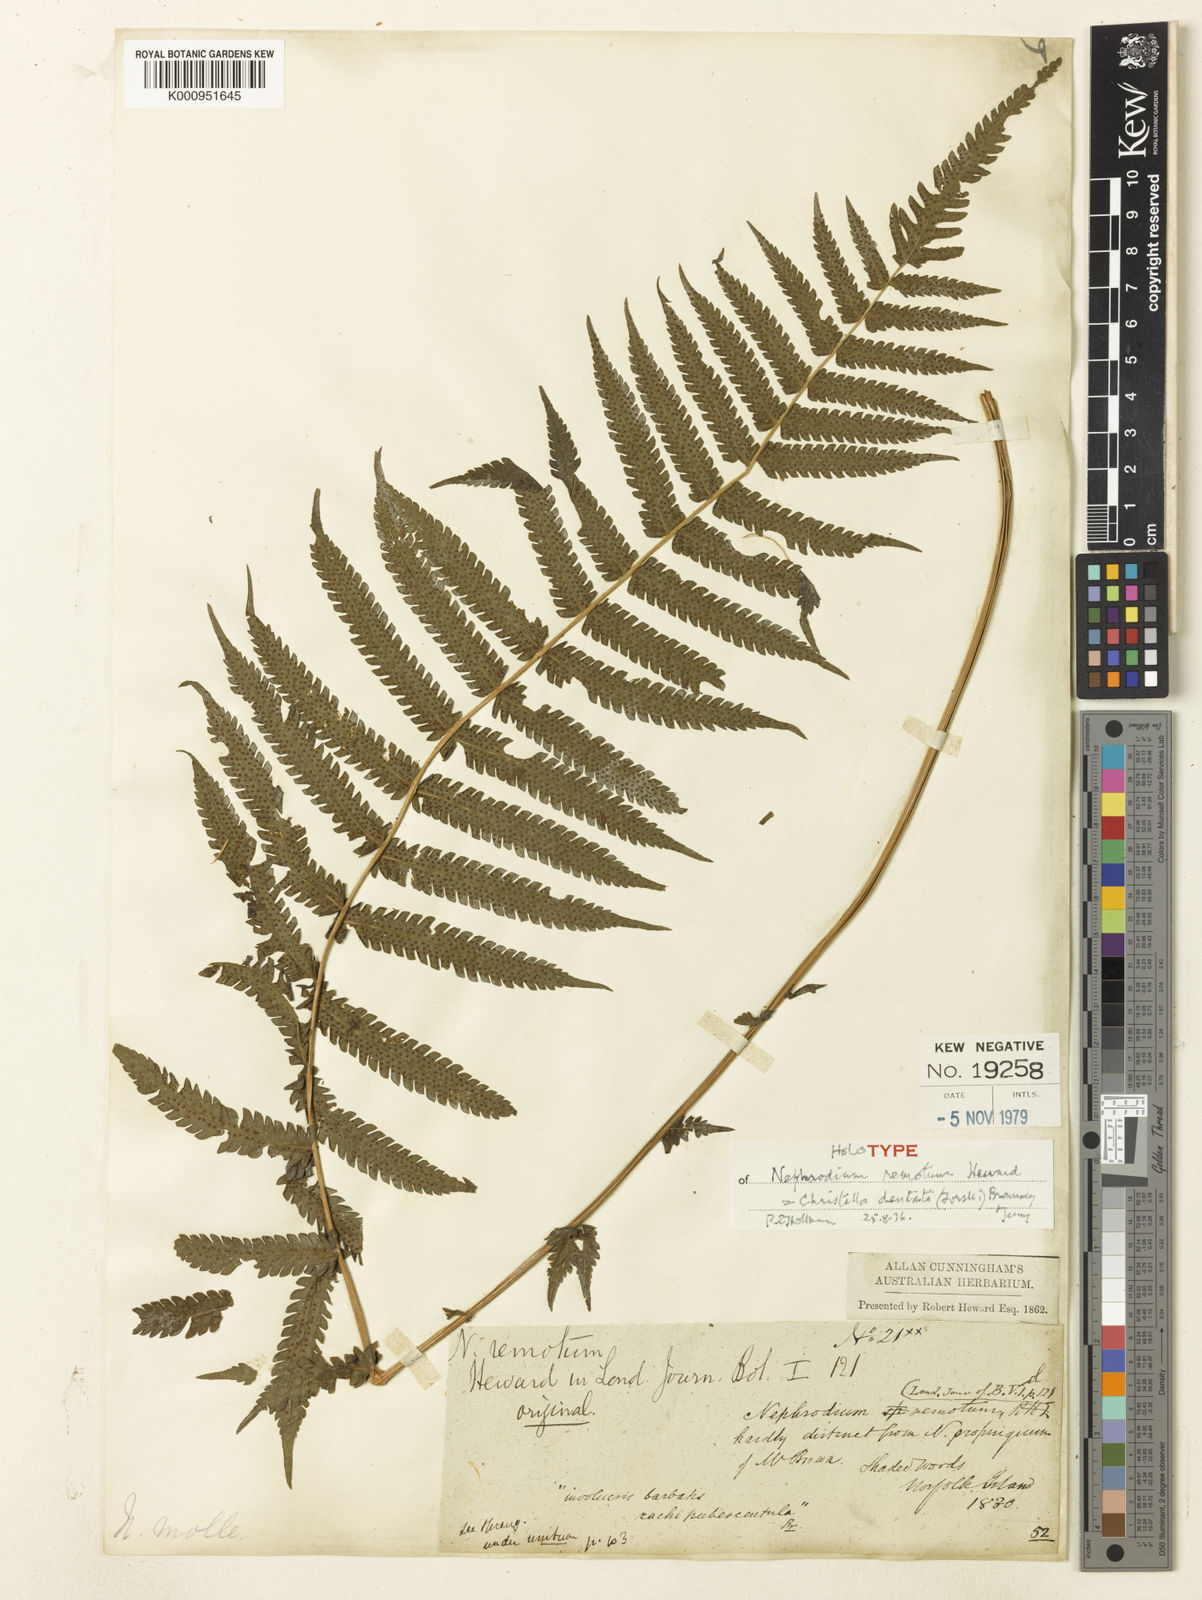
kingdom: Plantae
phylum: Tracheophyta
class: Polypodiopsida
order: Polypodiales
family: Thelypteridaceae
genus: Christella
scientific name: Christella dentata
